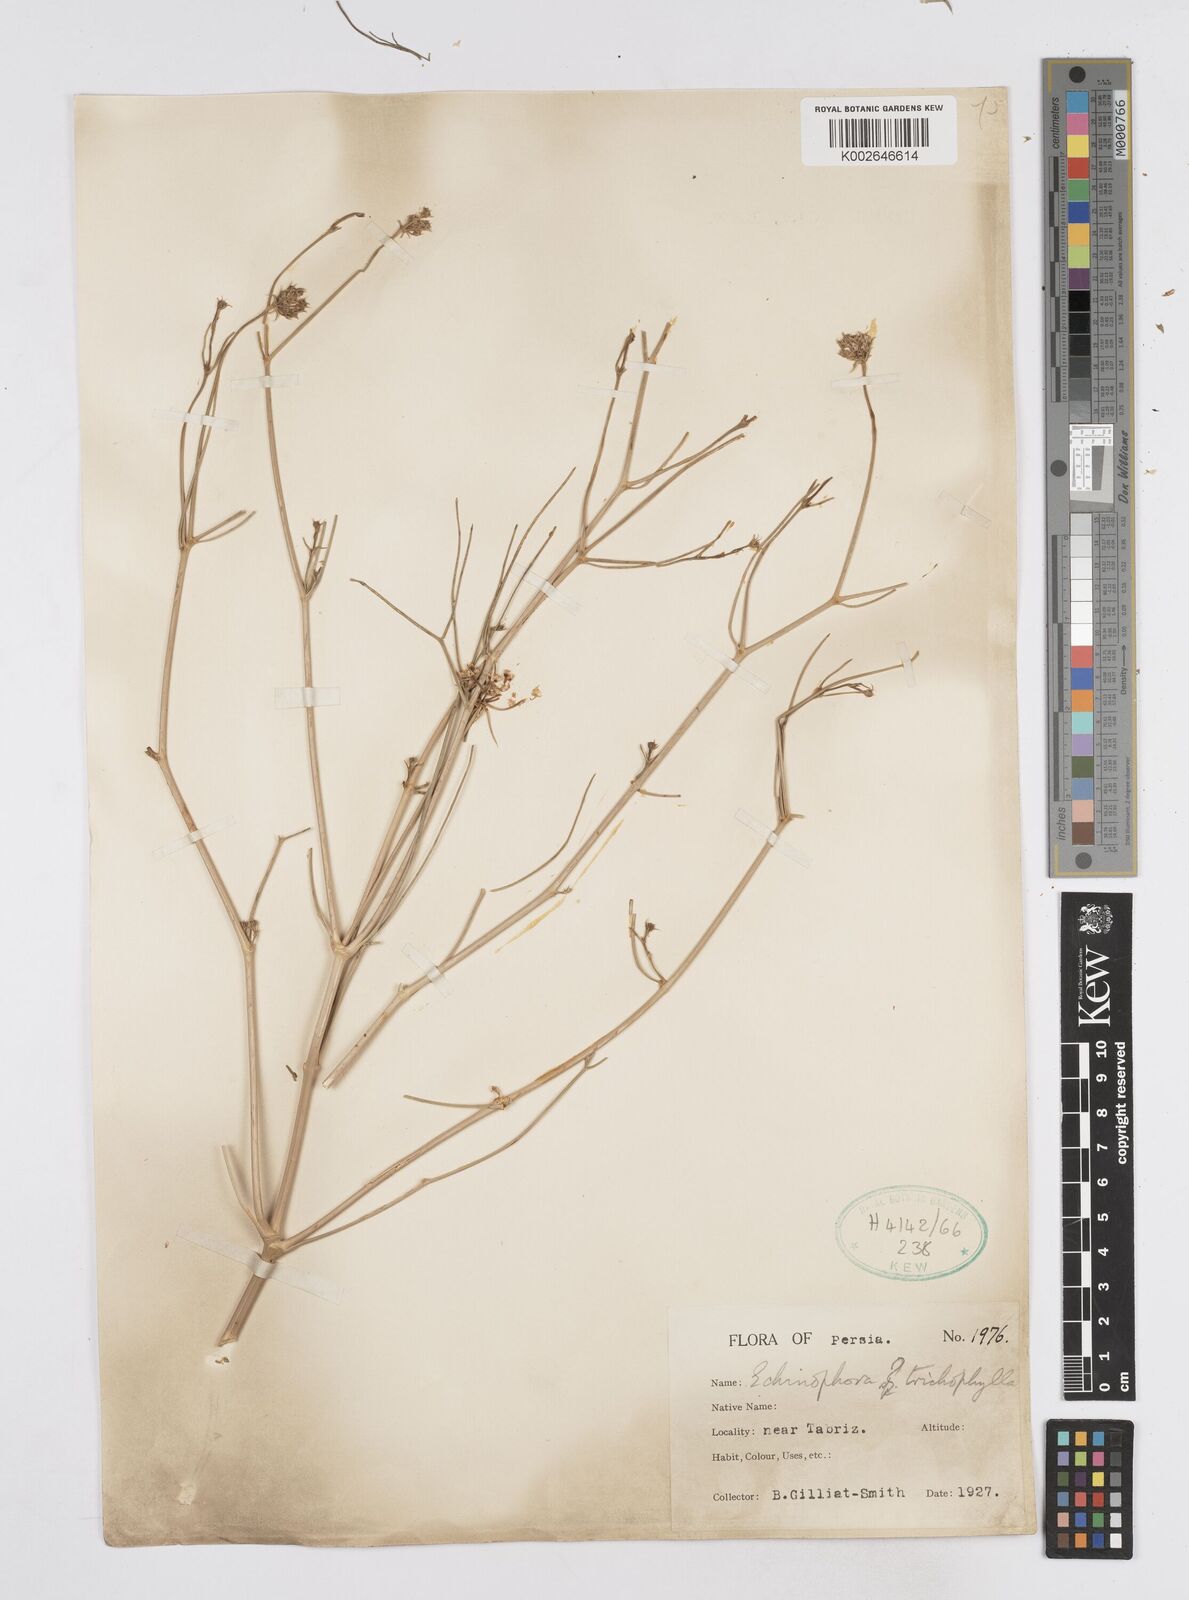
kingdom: Plantae
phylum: Tracheophyta
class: Magnoliopsida
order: Apiales
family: Apiaceae
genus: Echinophora
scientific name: Echinophora trichophylla
